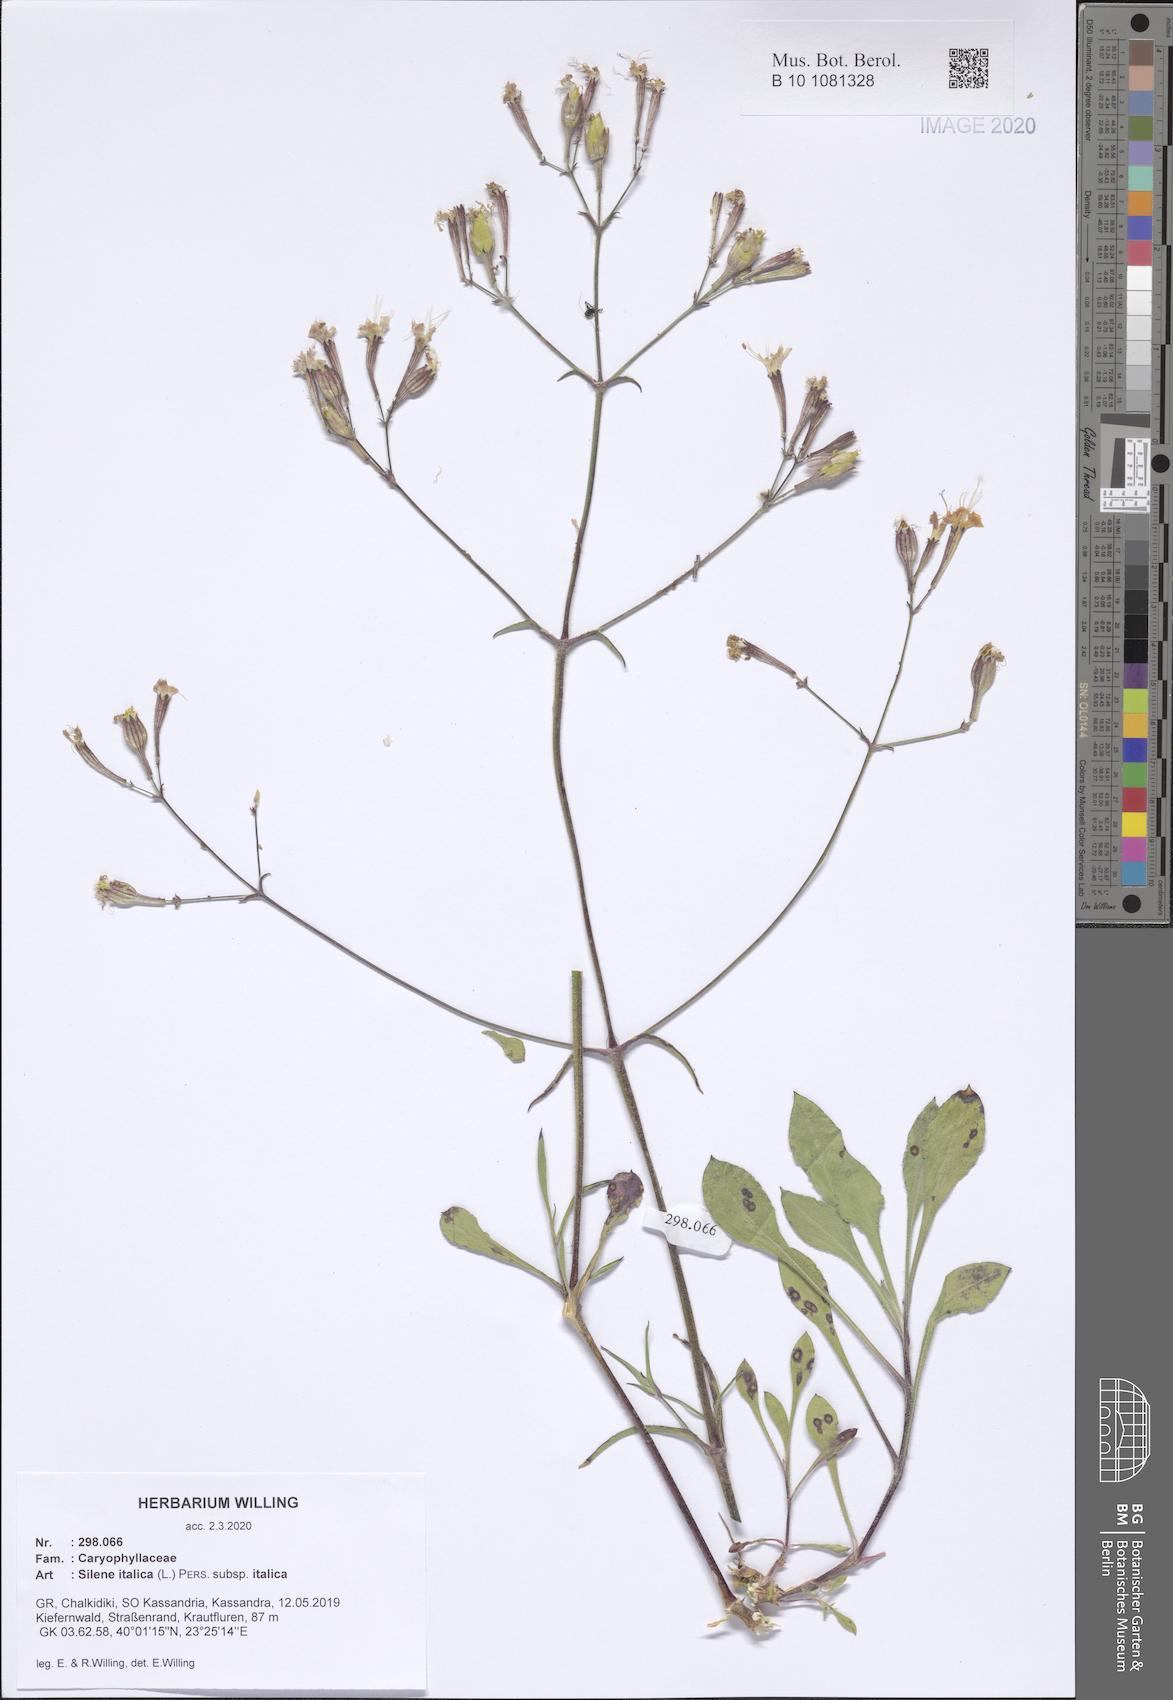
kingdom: Plantae
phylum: Tracheophyta
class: Magnoliopsida
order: Caryophyllales
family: Caryophyllaceae
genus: Silene
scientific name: Silene italica
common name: Italian catchfly
